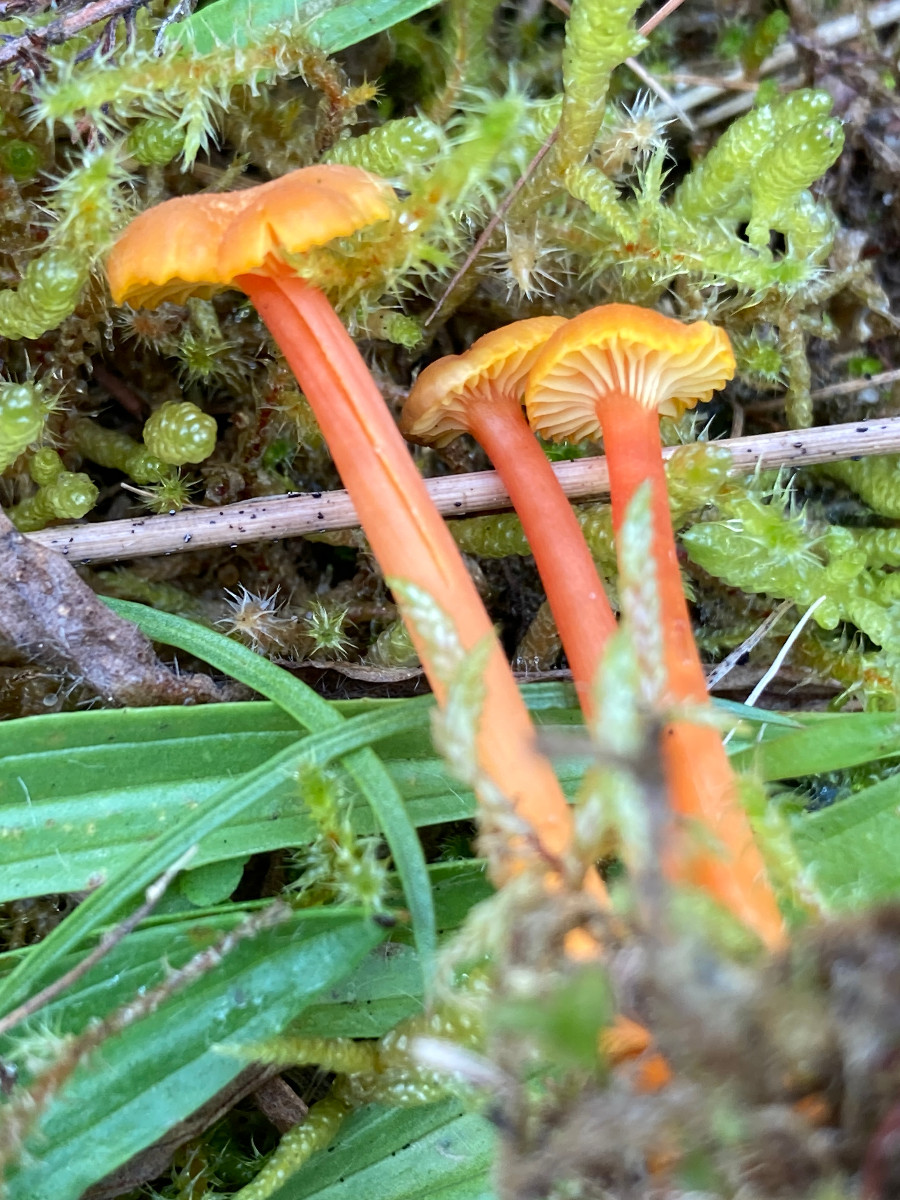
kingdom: Fungi
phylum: Basidiomycota
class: Agaricomycetes
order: Agaricales
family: Hygrophoraceae
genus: Hygrocybe
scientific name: Hygrocybe cantharellus
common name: kantarel-vokshat
